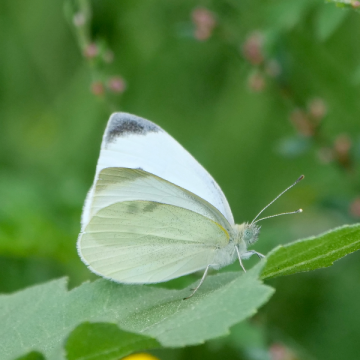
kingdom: Animalia
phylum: Arthropoda
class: Insecta
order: Lepidoptera
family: Pieridae
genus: Pieris
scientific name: Pieris rapae
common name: Cabbage White
